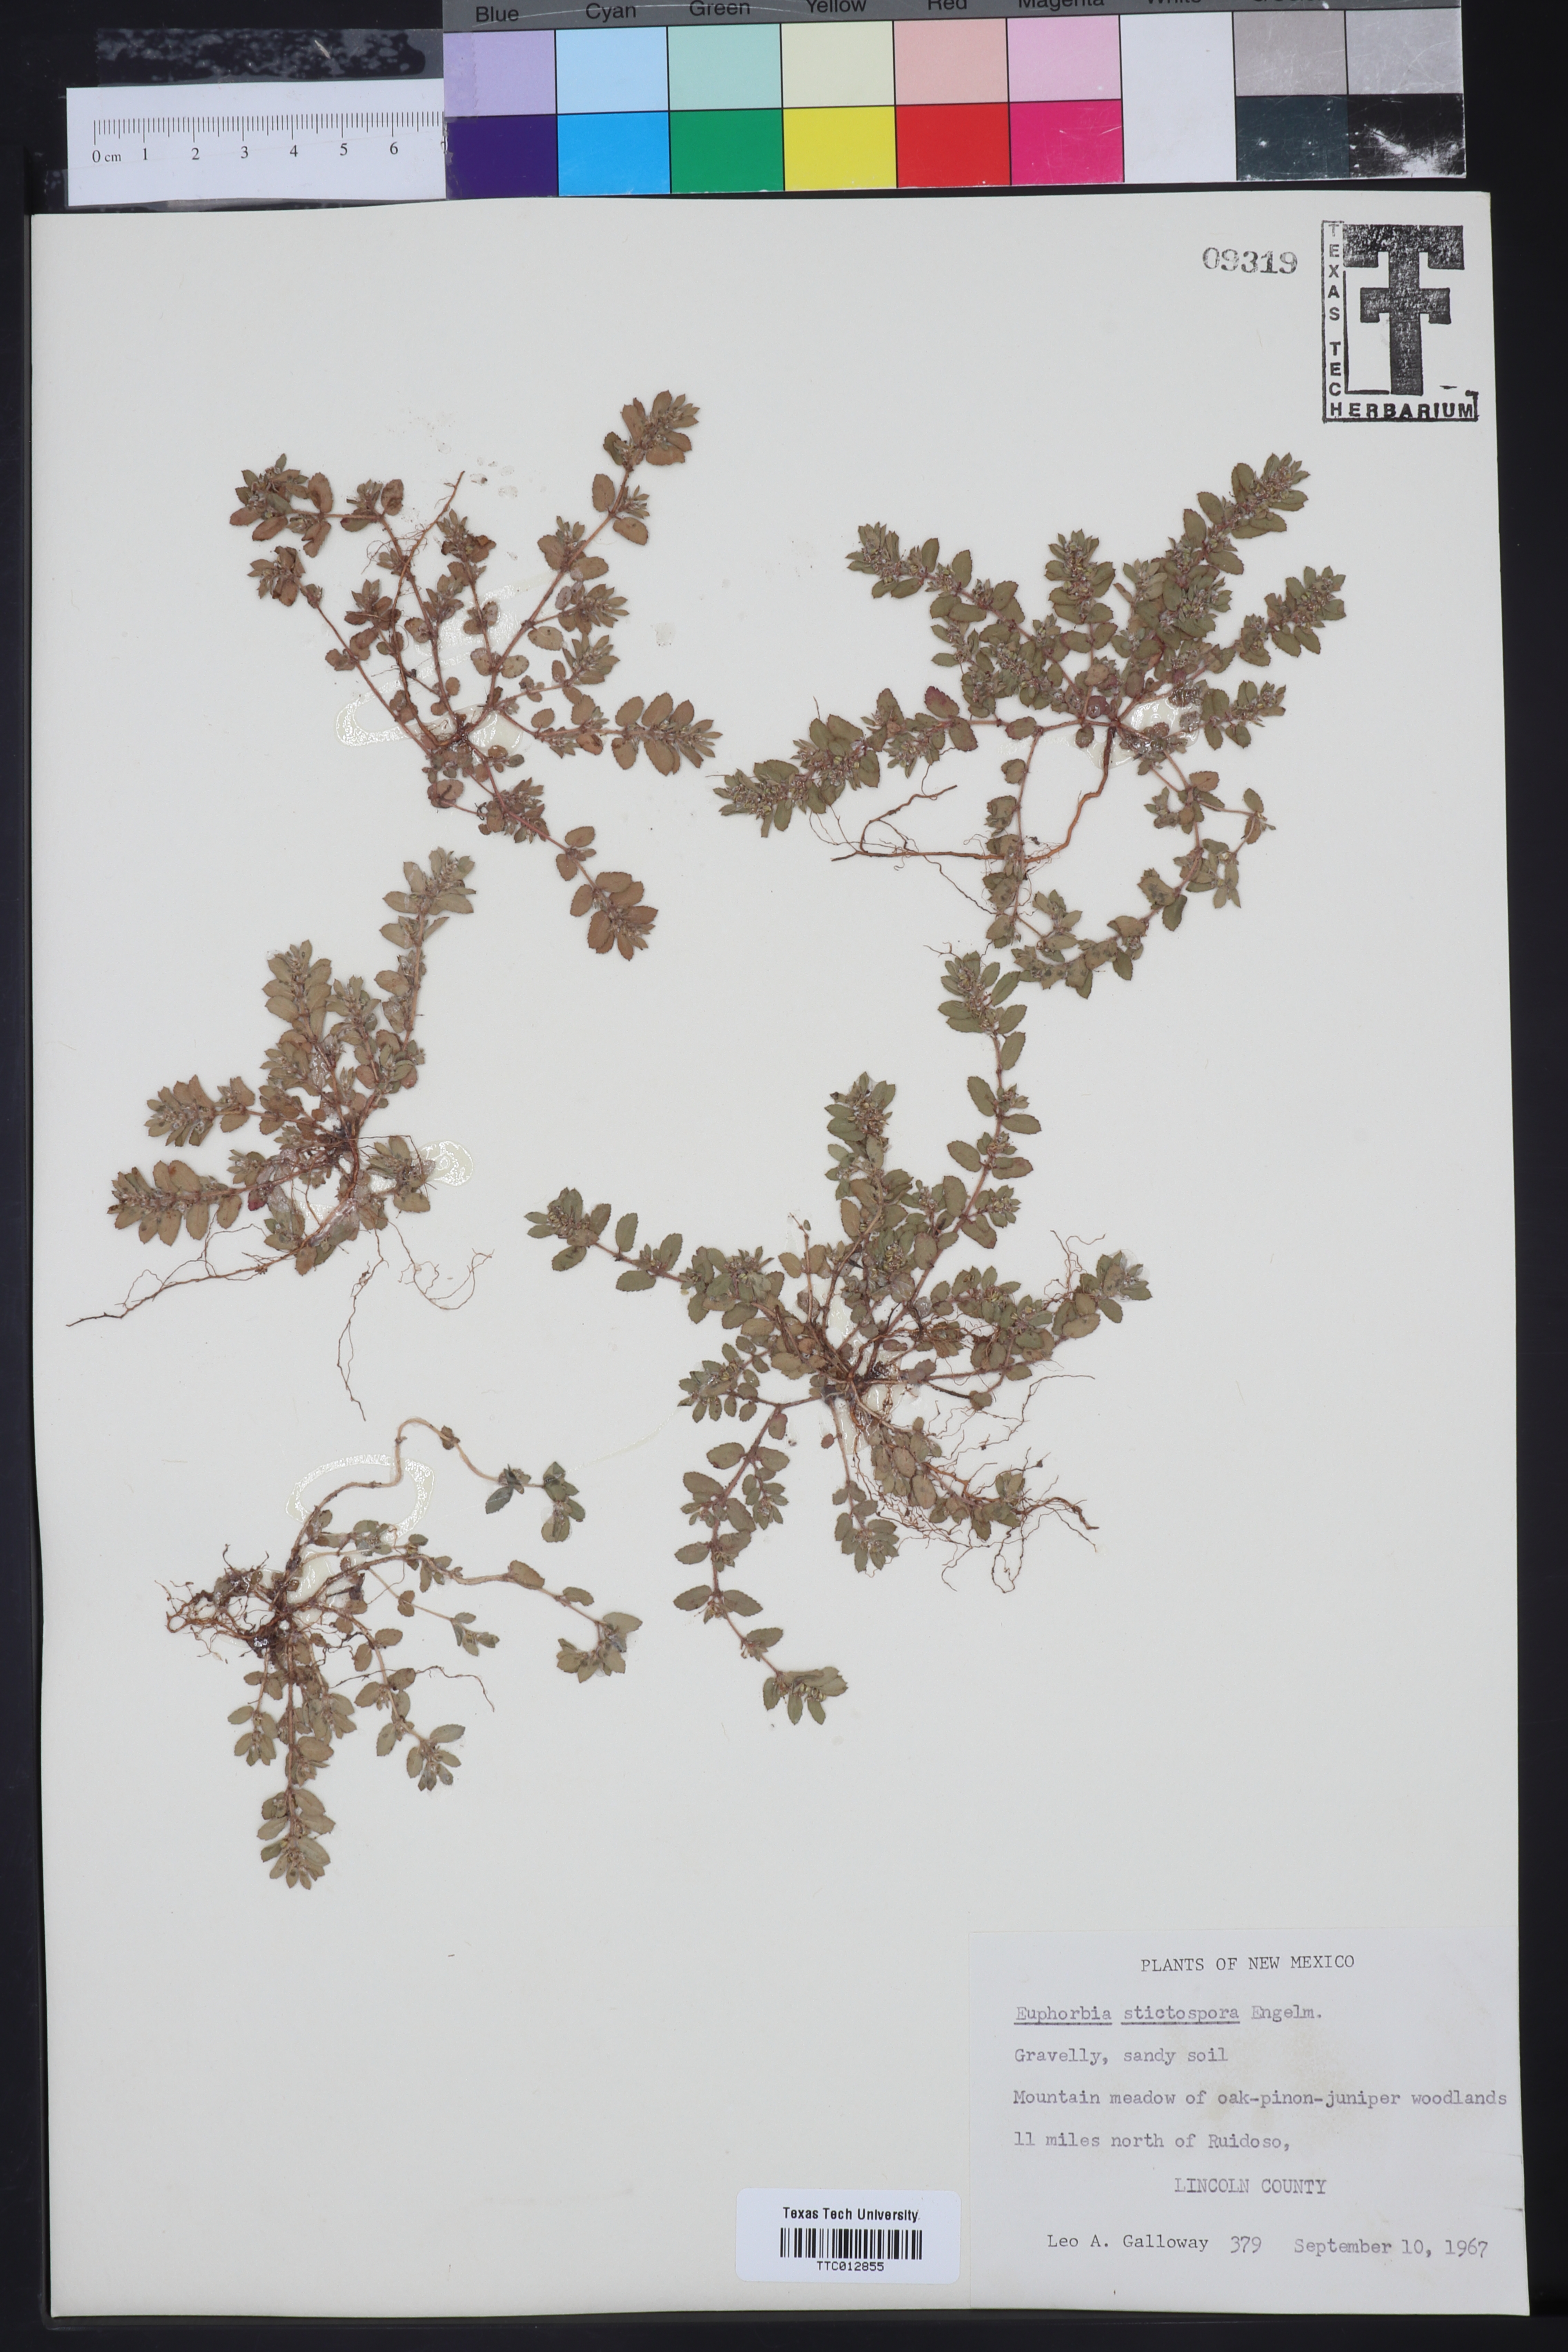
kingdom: Plantae
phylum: Tracheophyta
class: Magnoliopsida
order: Malpighiales
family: Euphorbiaceae
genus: Euphorbia
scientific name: Euphorbia stictospora
